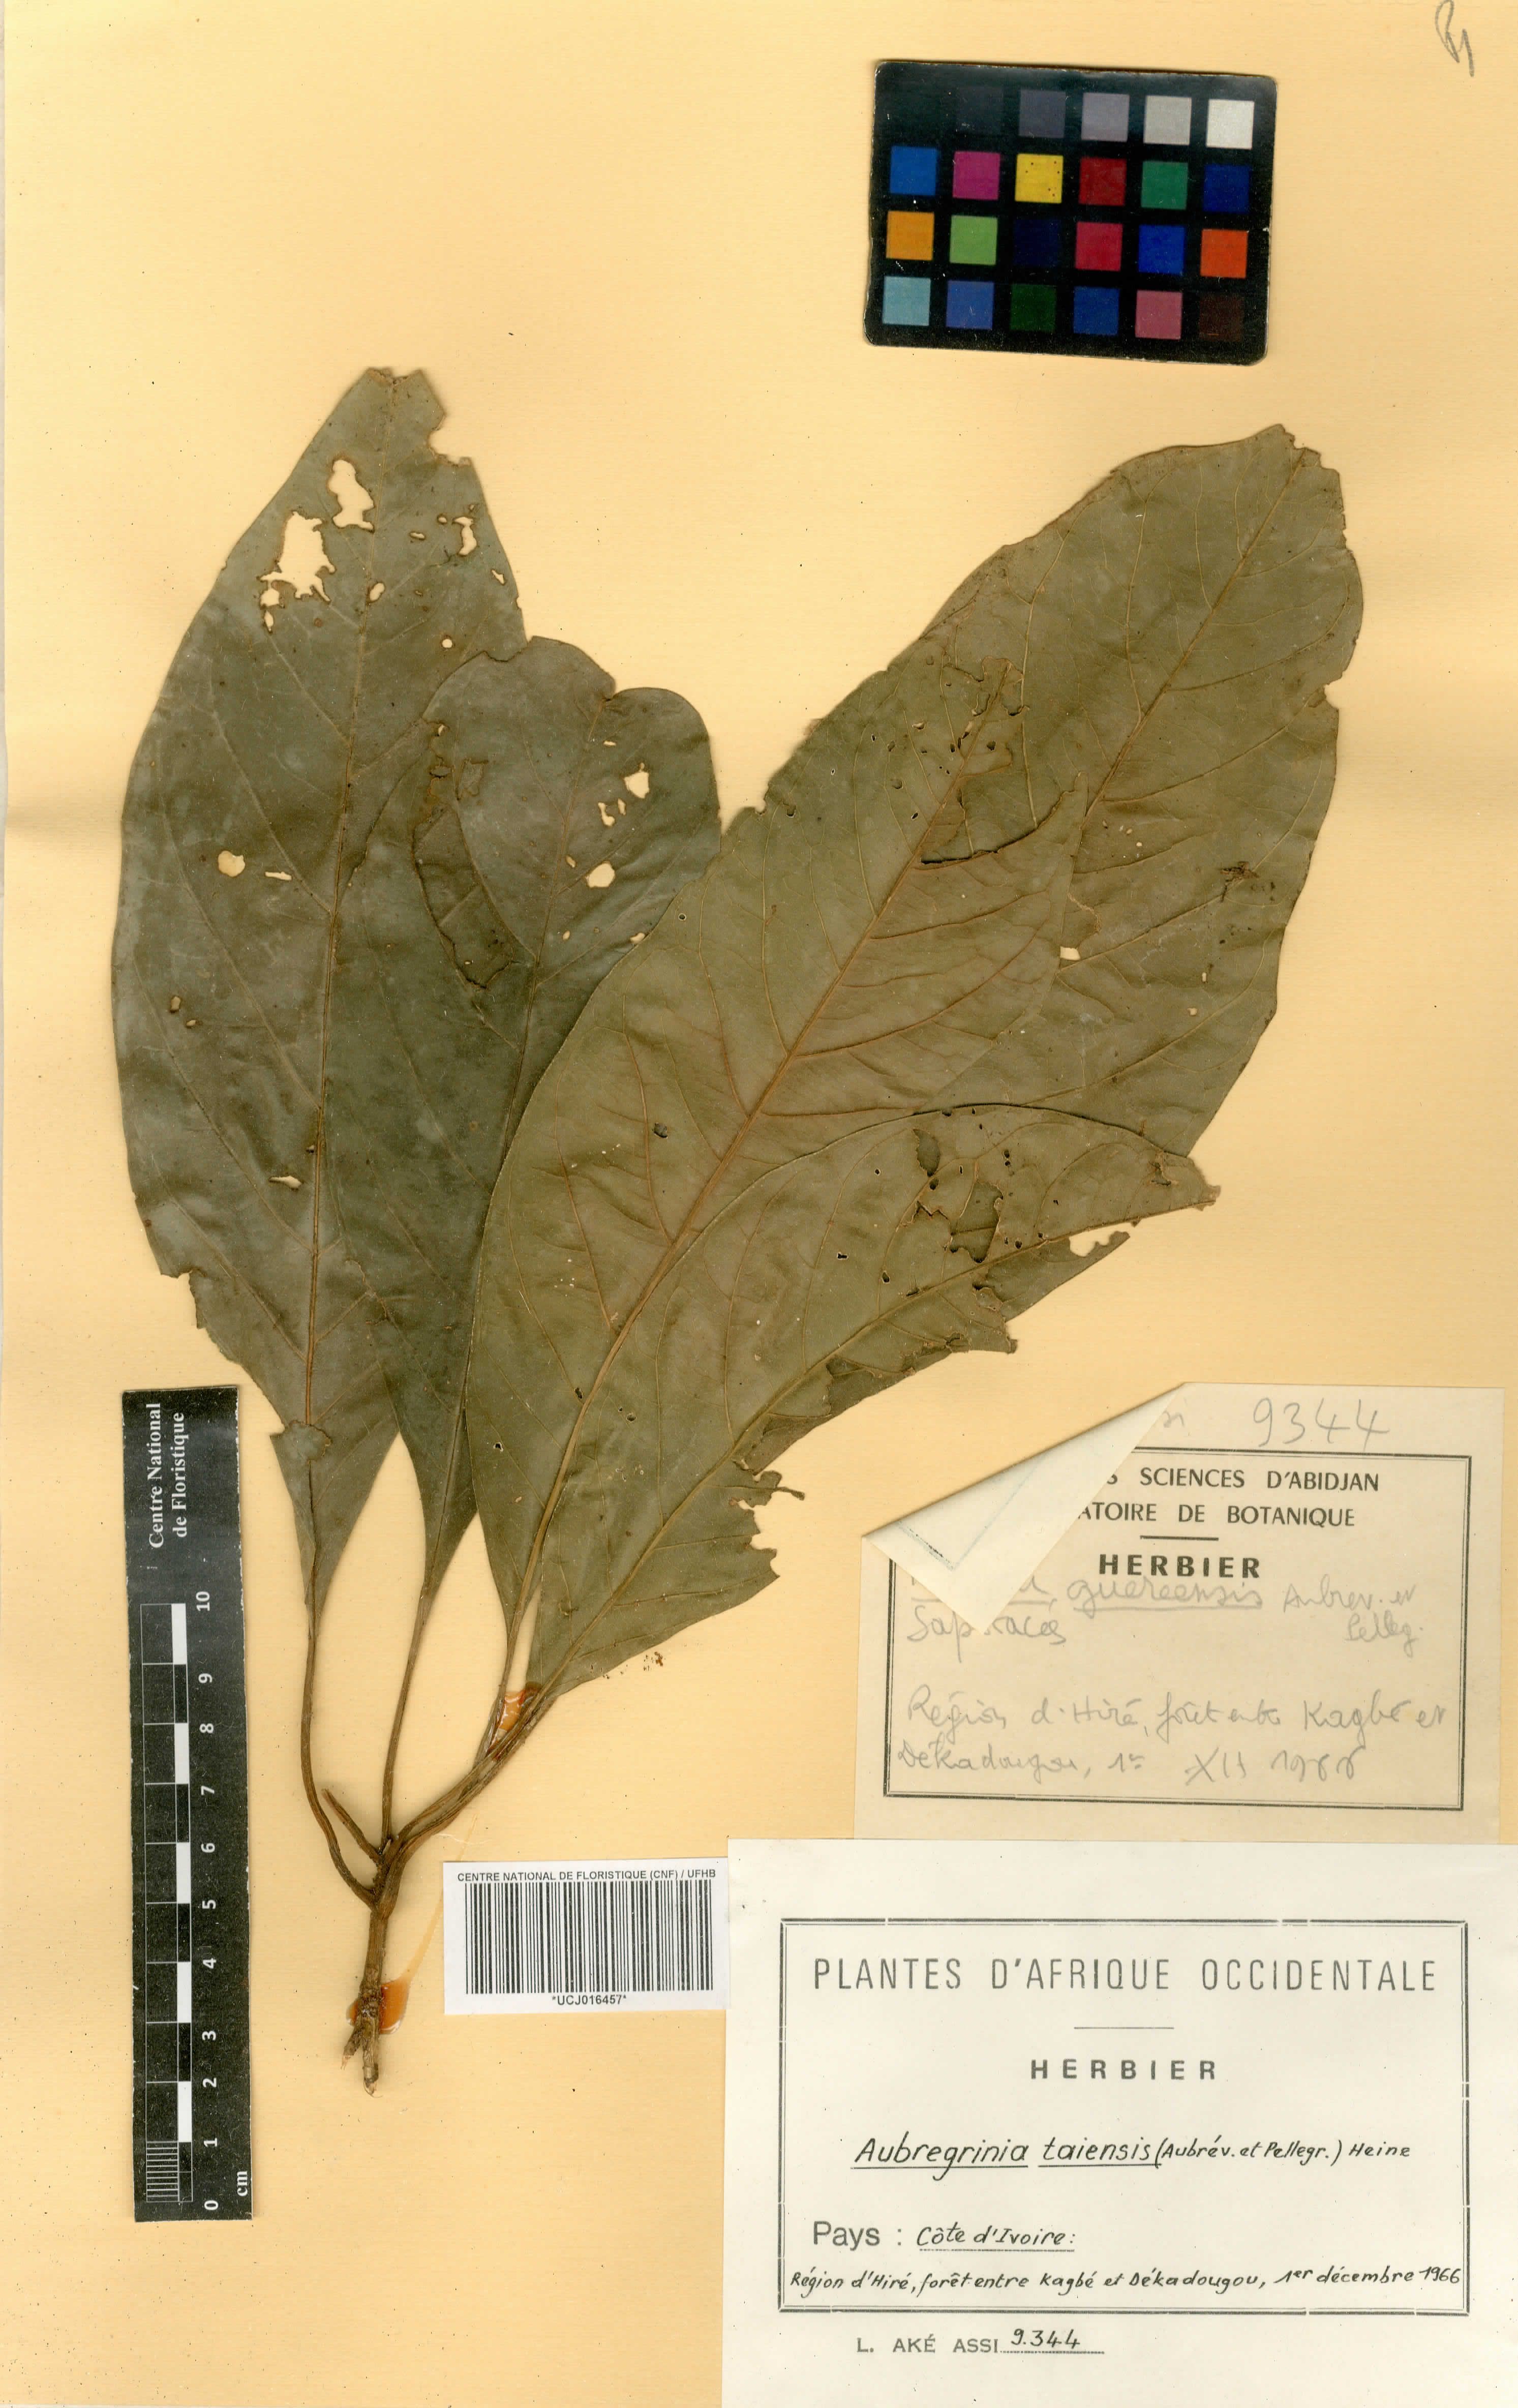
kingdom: Plantae
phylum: Tracheophyta
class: Magnoliopsida
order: Ericales
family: Sapotaceae
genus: Aubregrinia
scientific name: Aubregrinia taiensis
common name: Great tiger-nut tree
